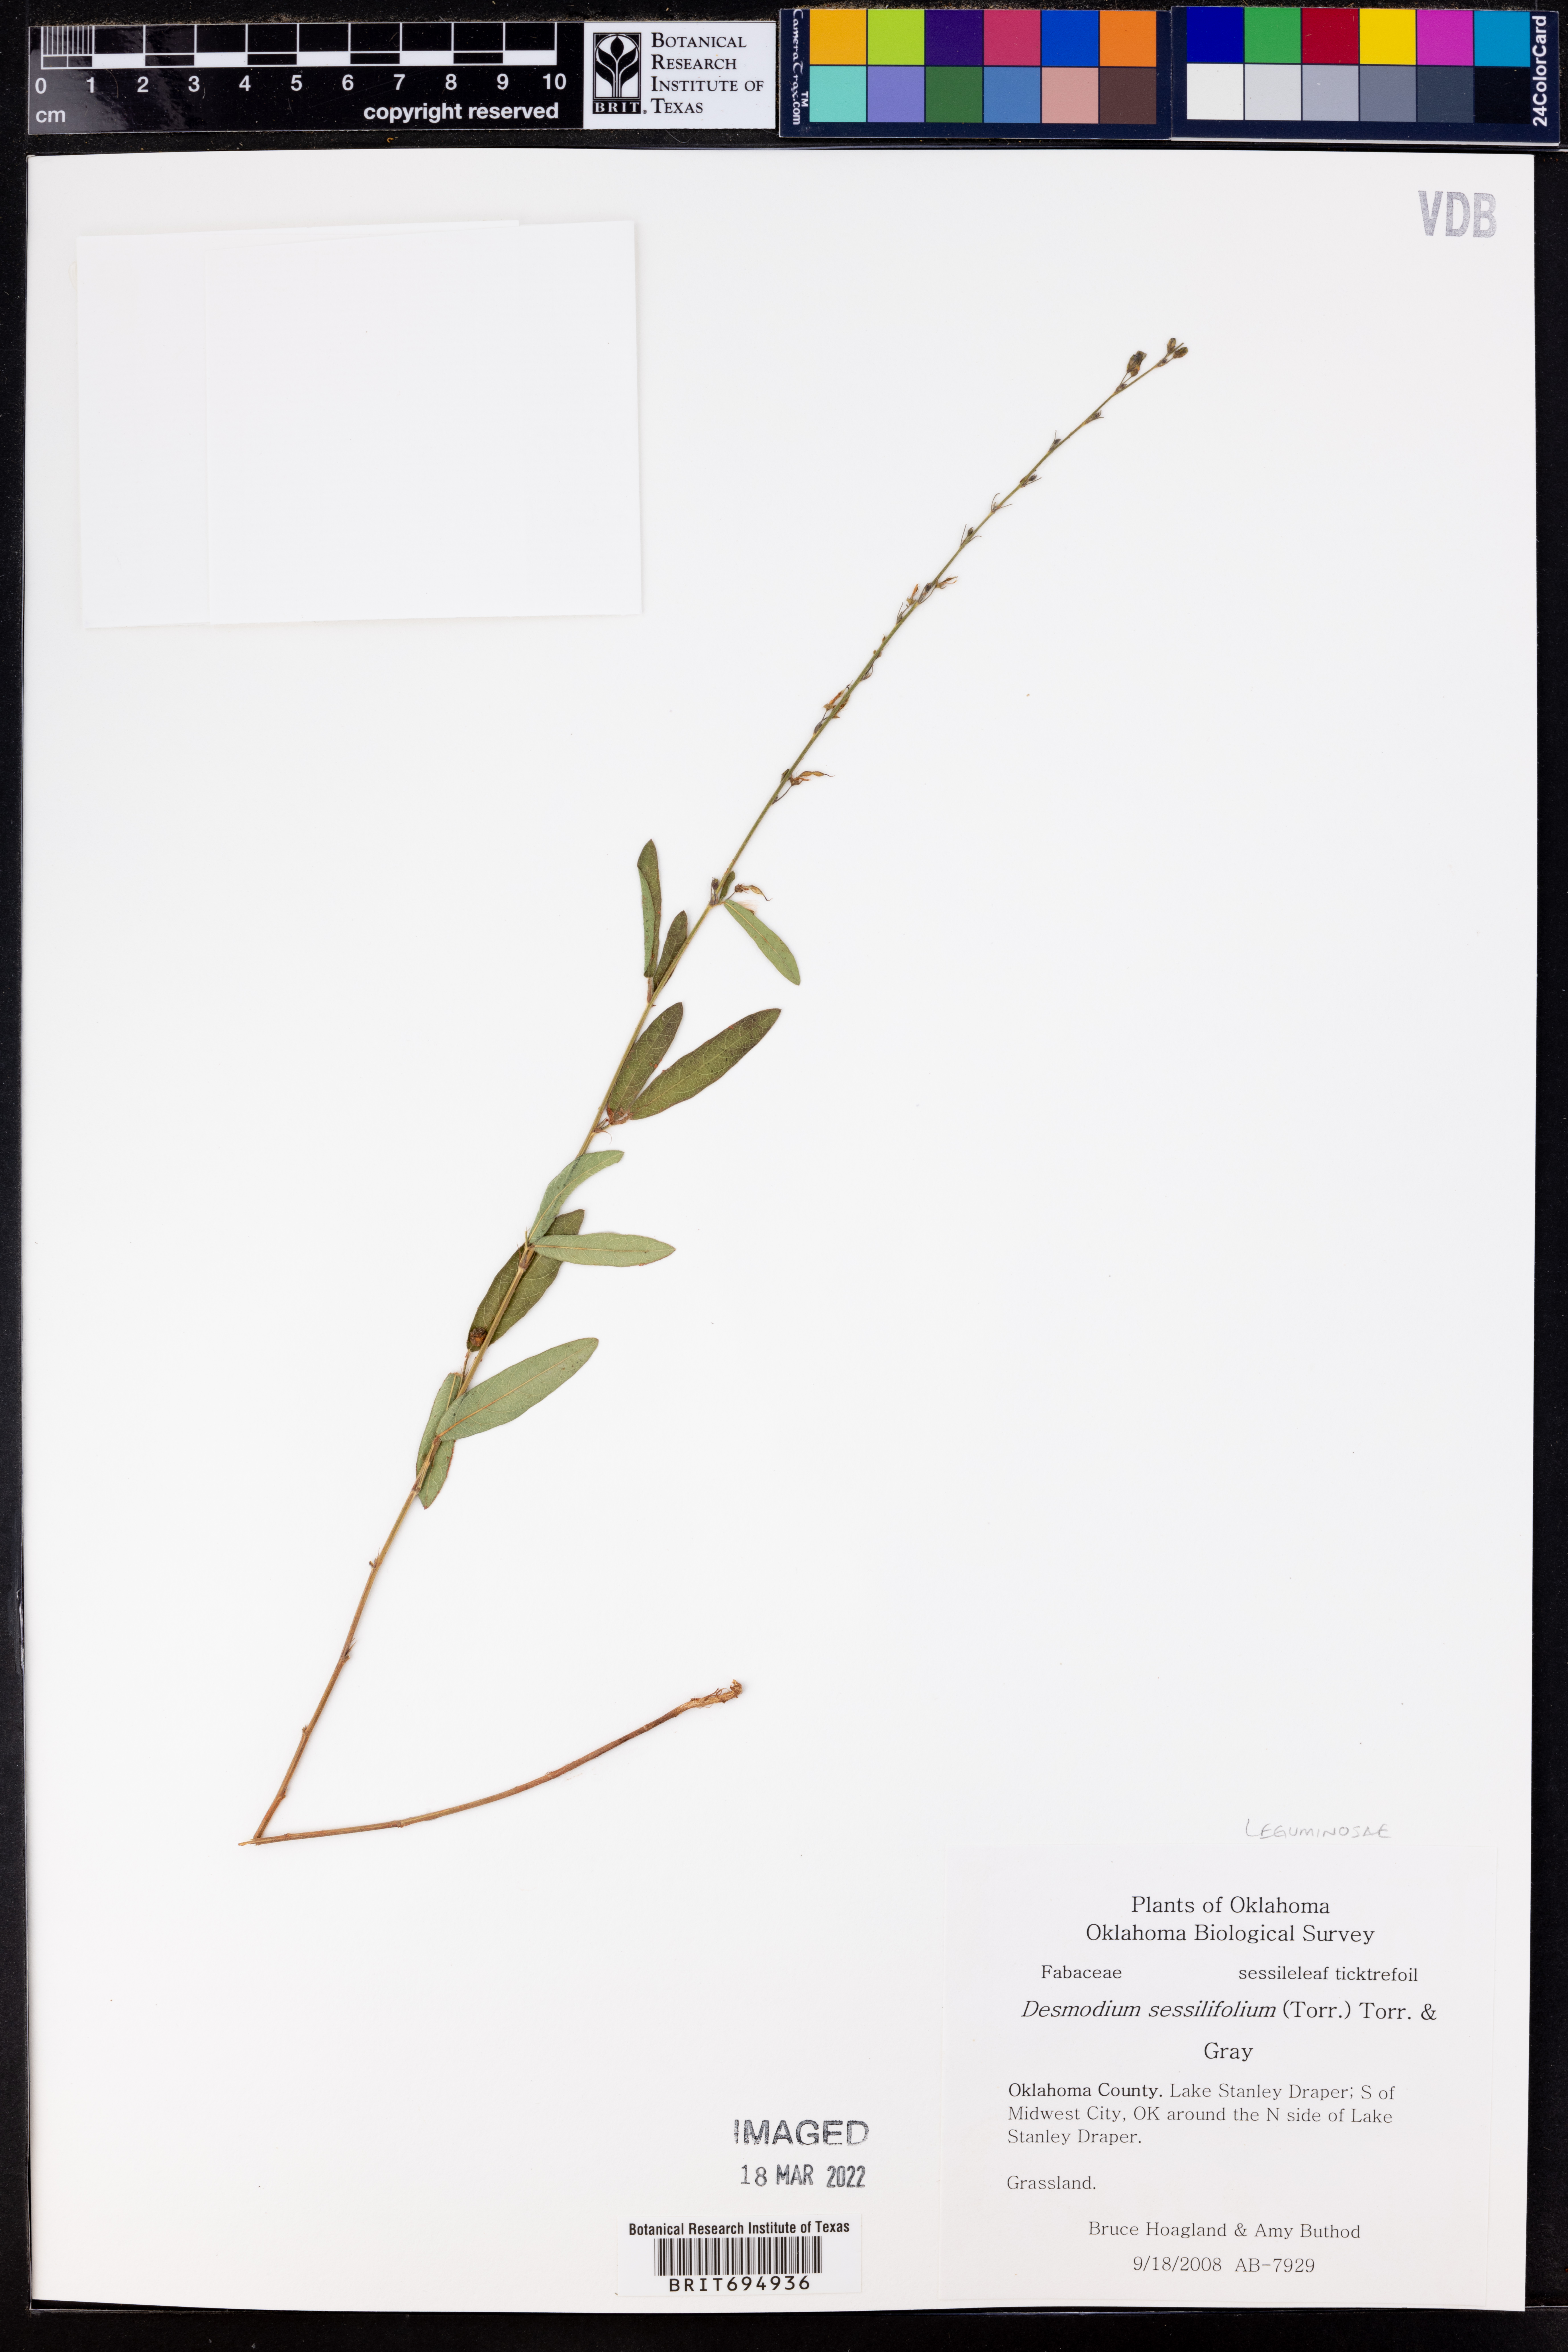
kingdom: Plantae
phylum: Tracheophyta
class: Magnoliopsida
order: Fabales
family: Fabaceae
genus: Desmodium
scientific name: Desmodium sessilifolium
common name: Sessile tick-clover
